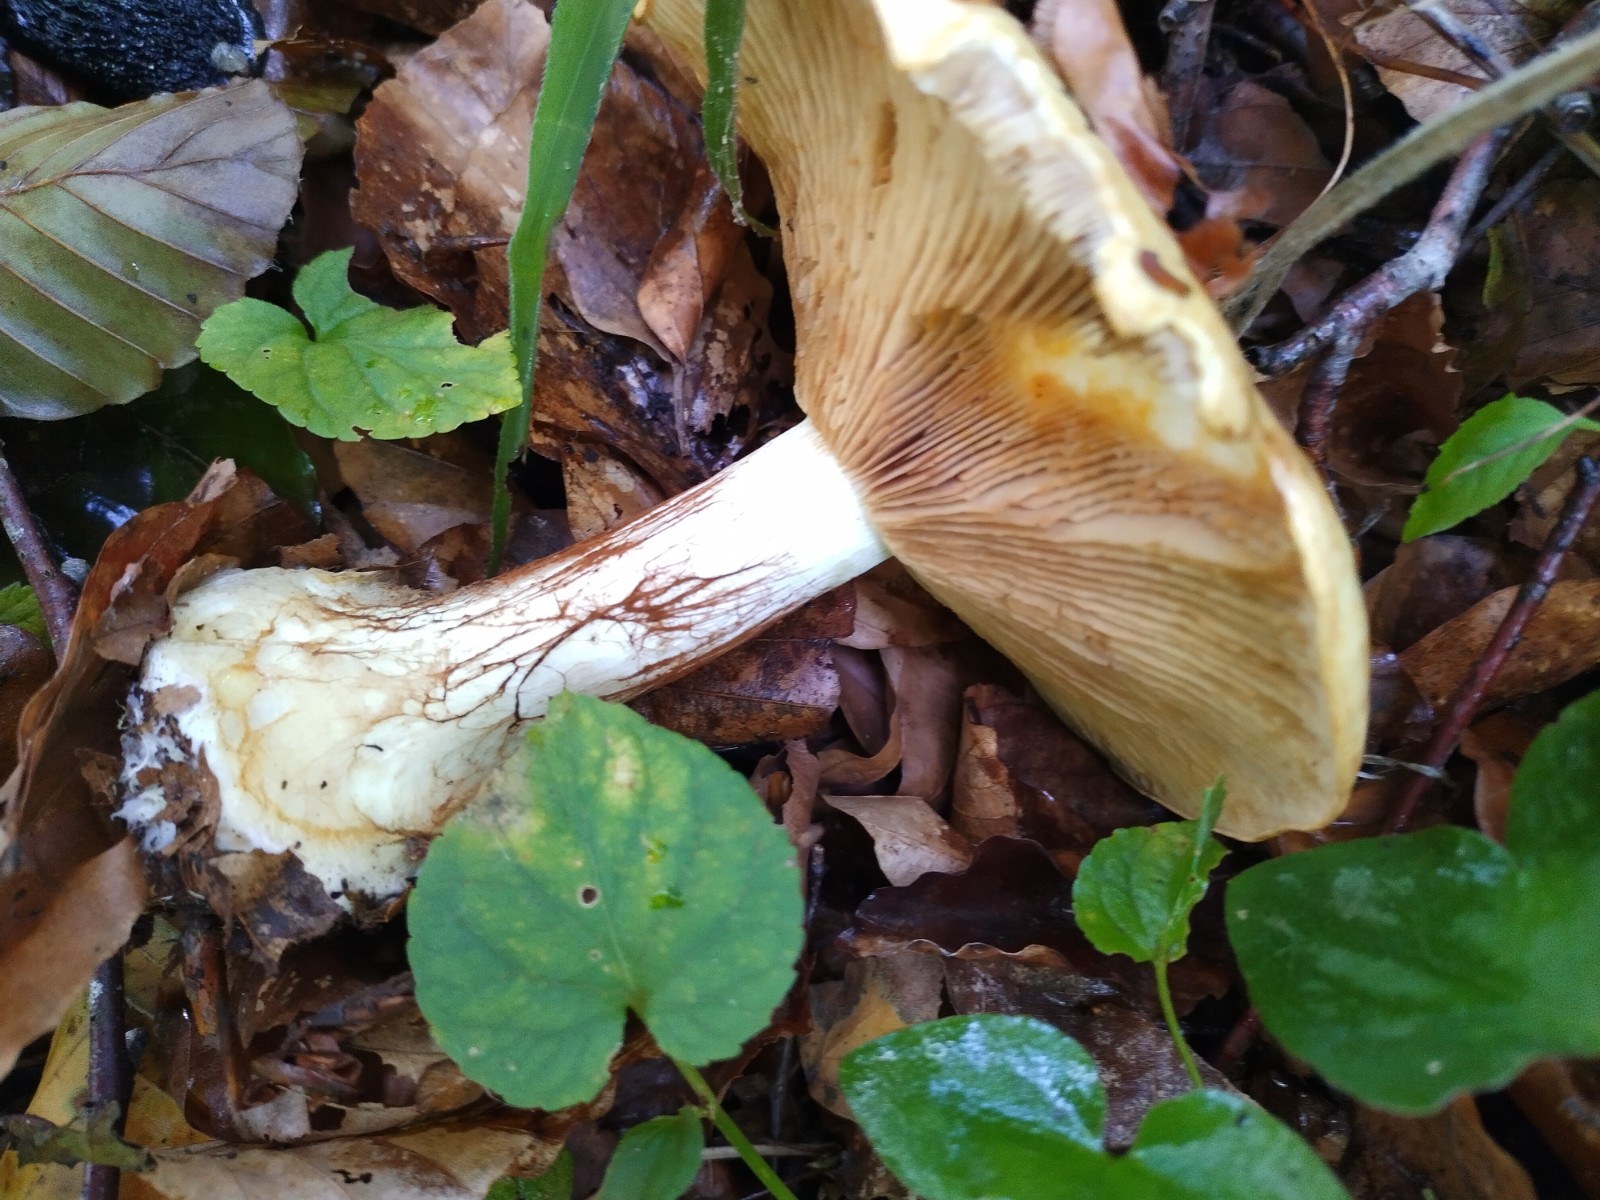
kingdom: Fungi
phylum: Basidiomycota
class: Agaricomycetes
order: Agaricales
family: Cortinariaceae
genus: Cortinarius
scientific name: Cortinarius
